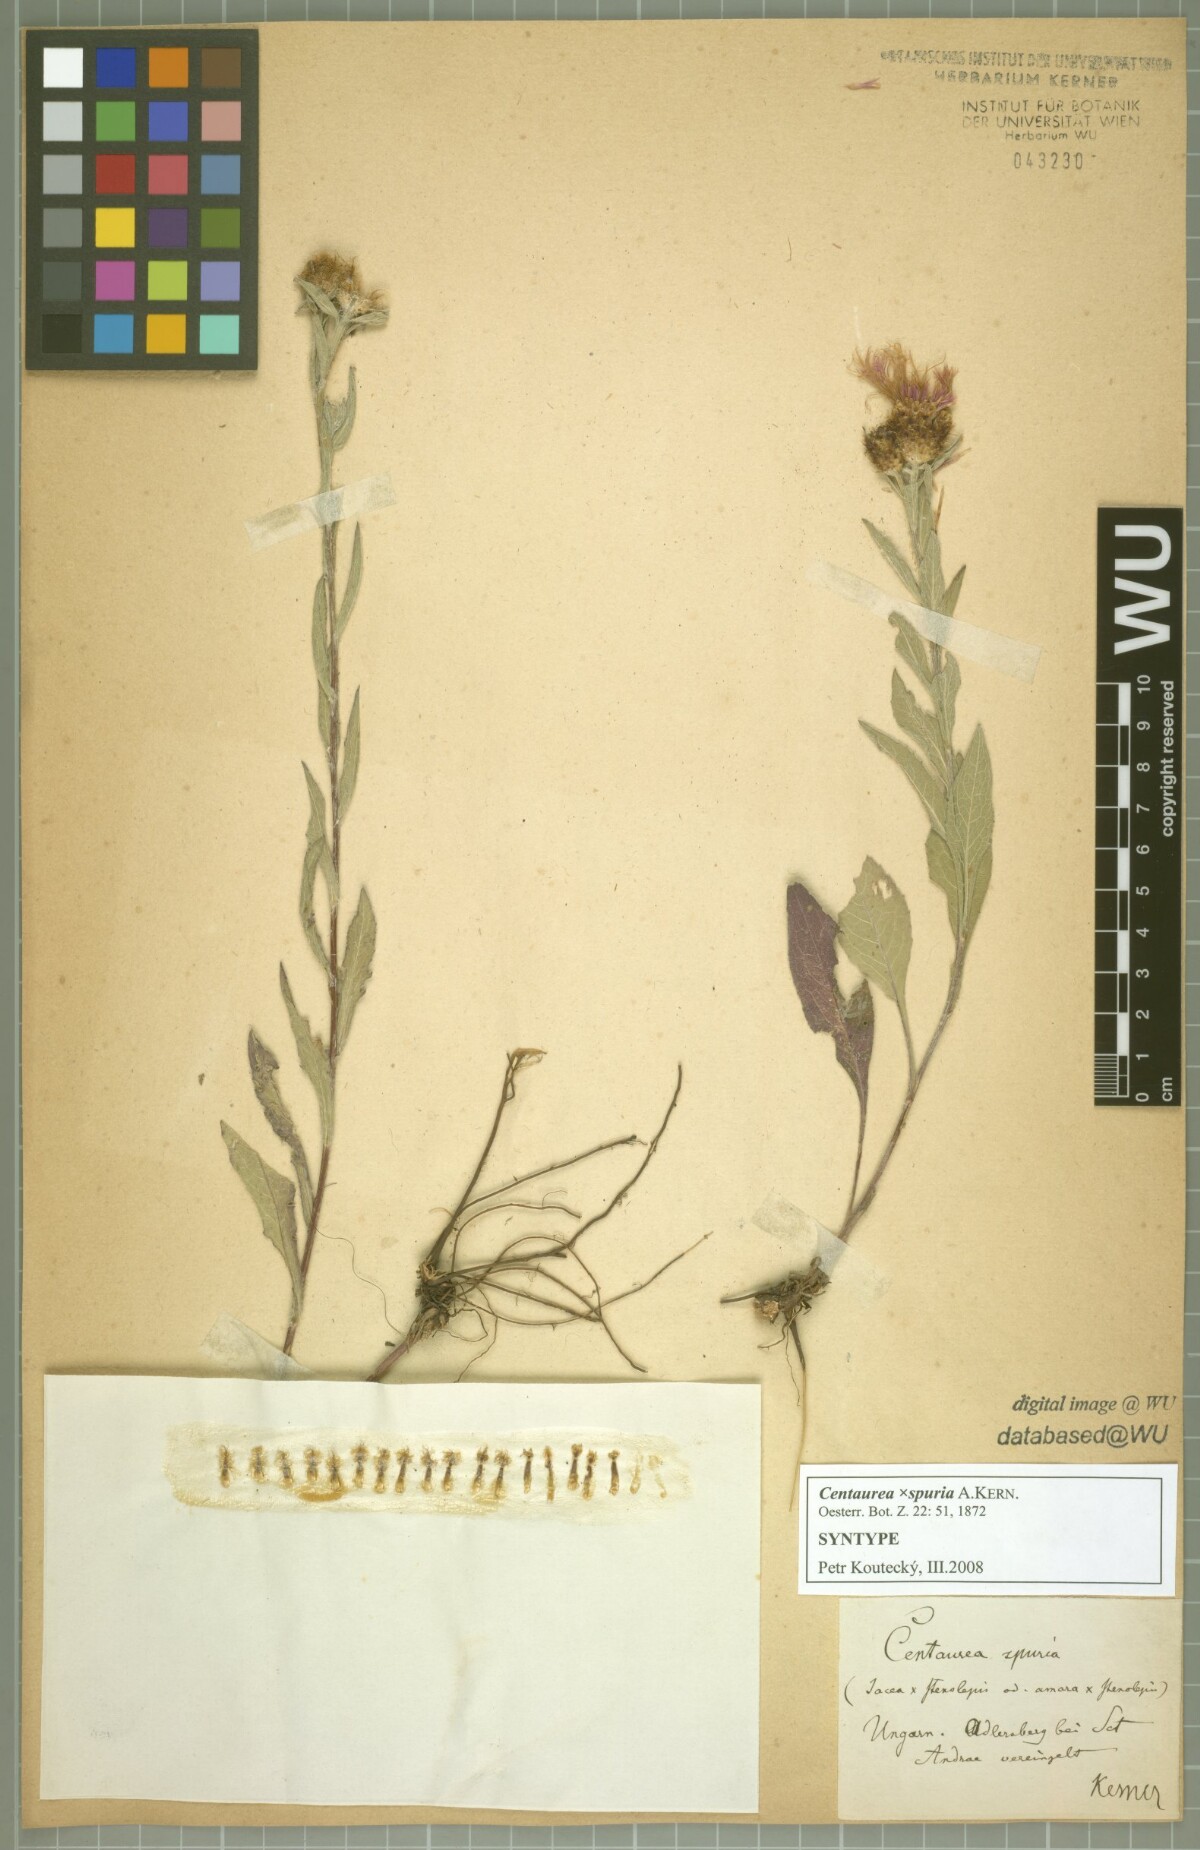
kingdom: Plantae
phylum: Tracheophyta
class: Magnoliopsida
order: Asterales
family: Asteraceae
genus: Centaurea
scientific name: Centaurea spuria
